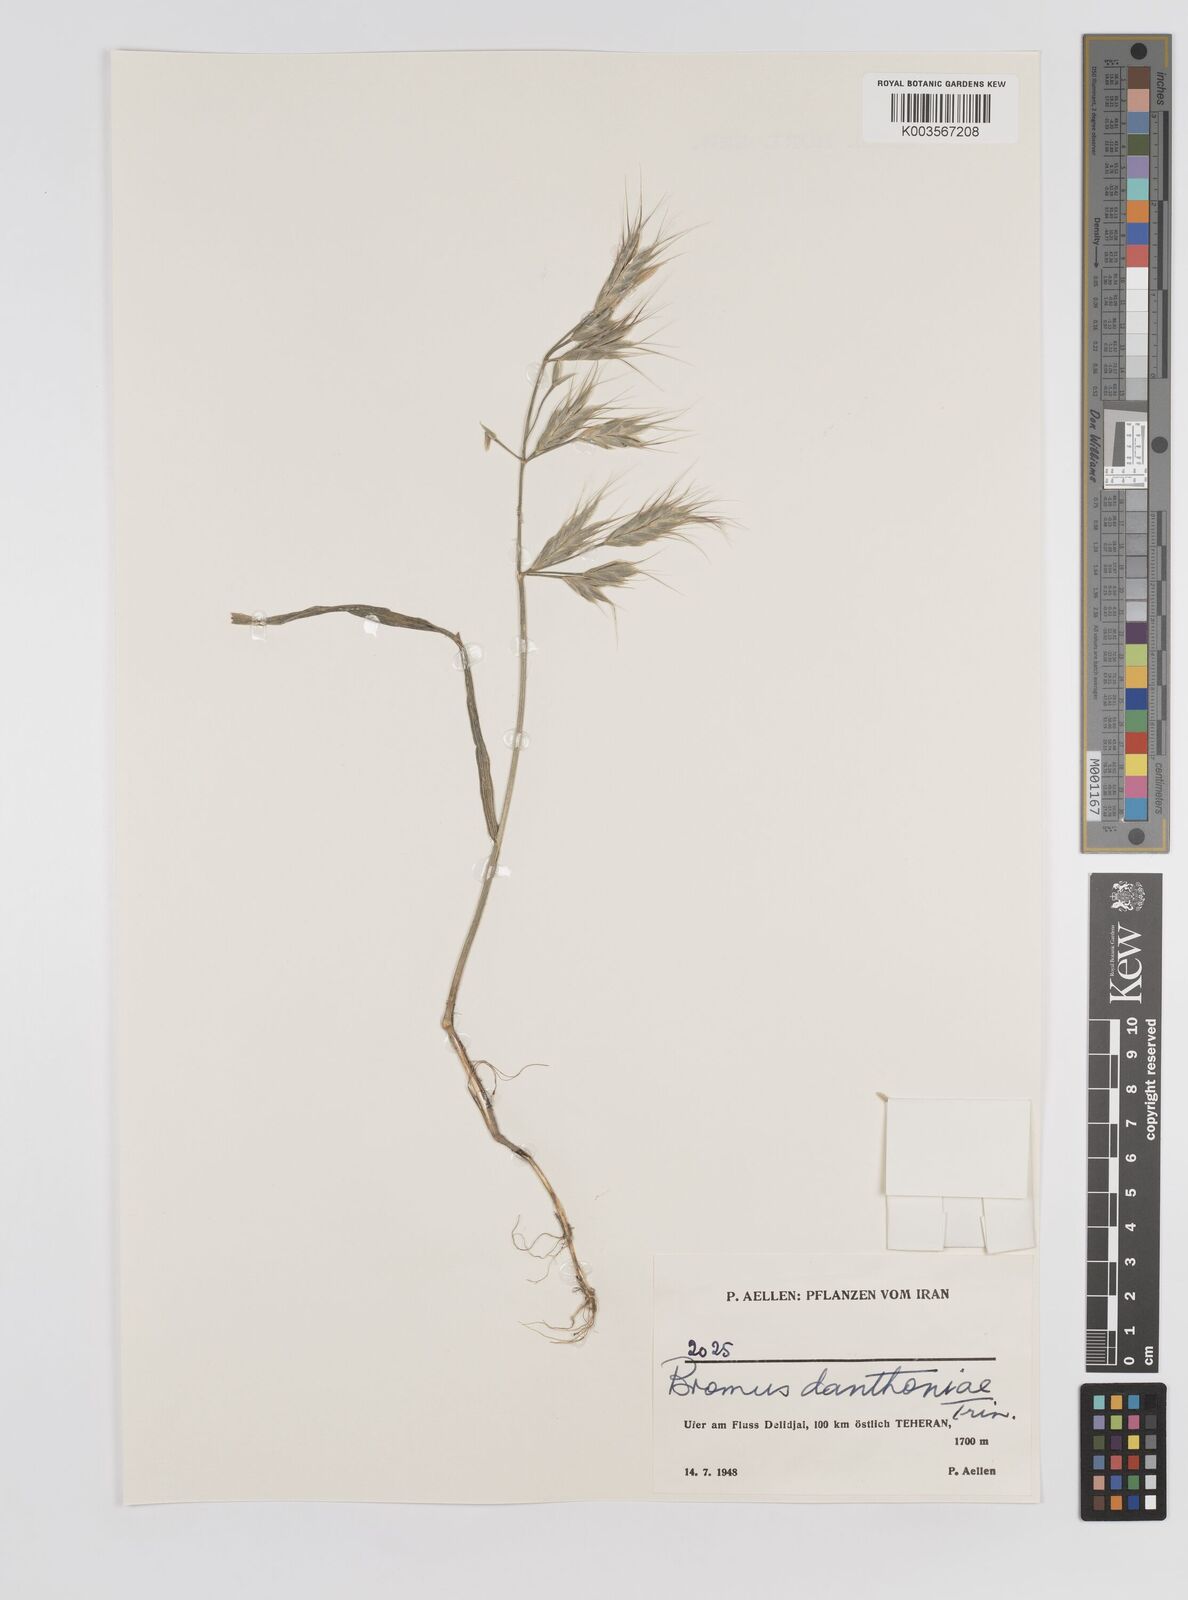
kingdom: Plantae
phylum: Tracheophyta
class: Liliopsida
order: Poales
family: Poaceae
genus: Bromus
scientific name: Bromus danthoniae
